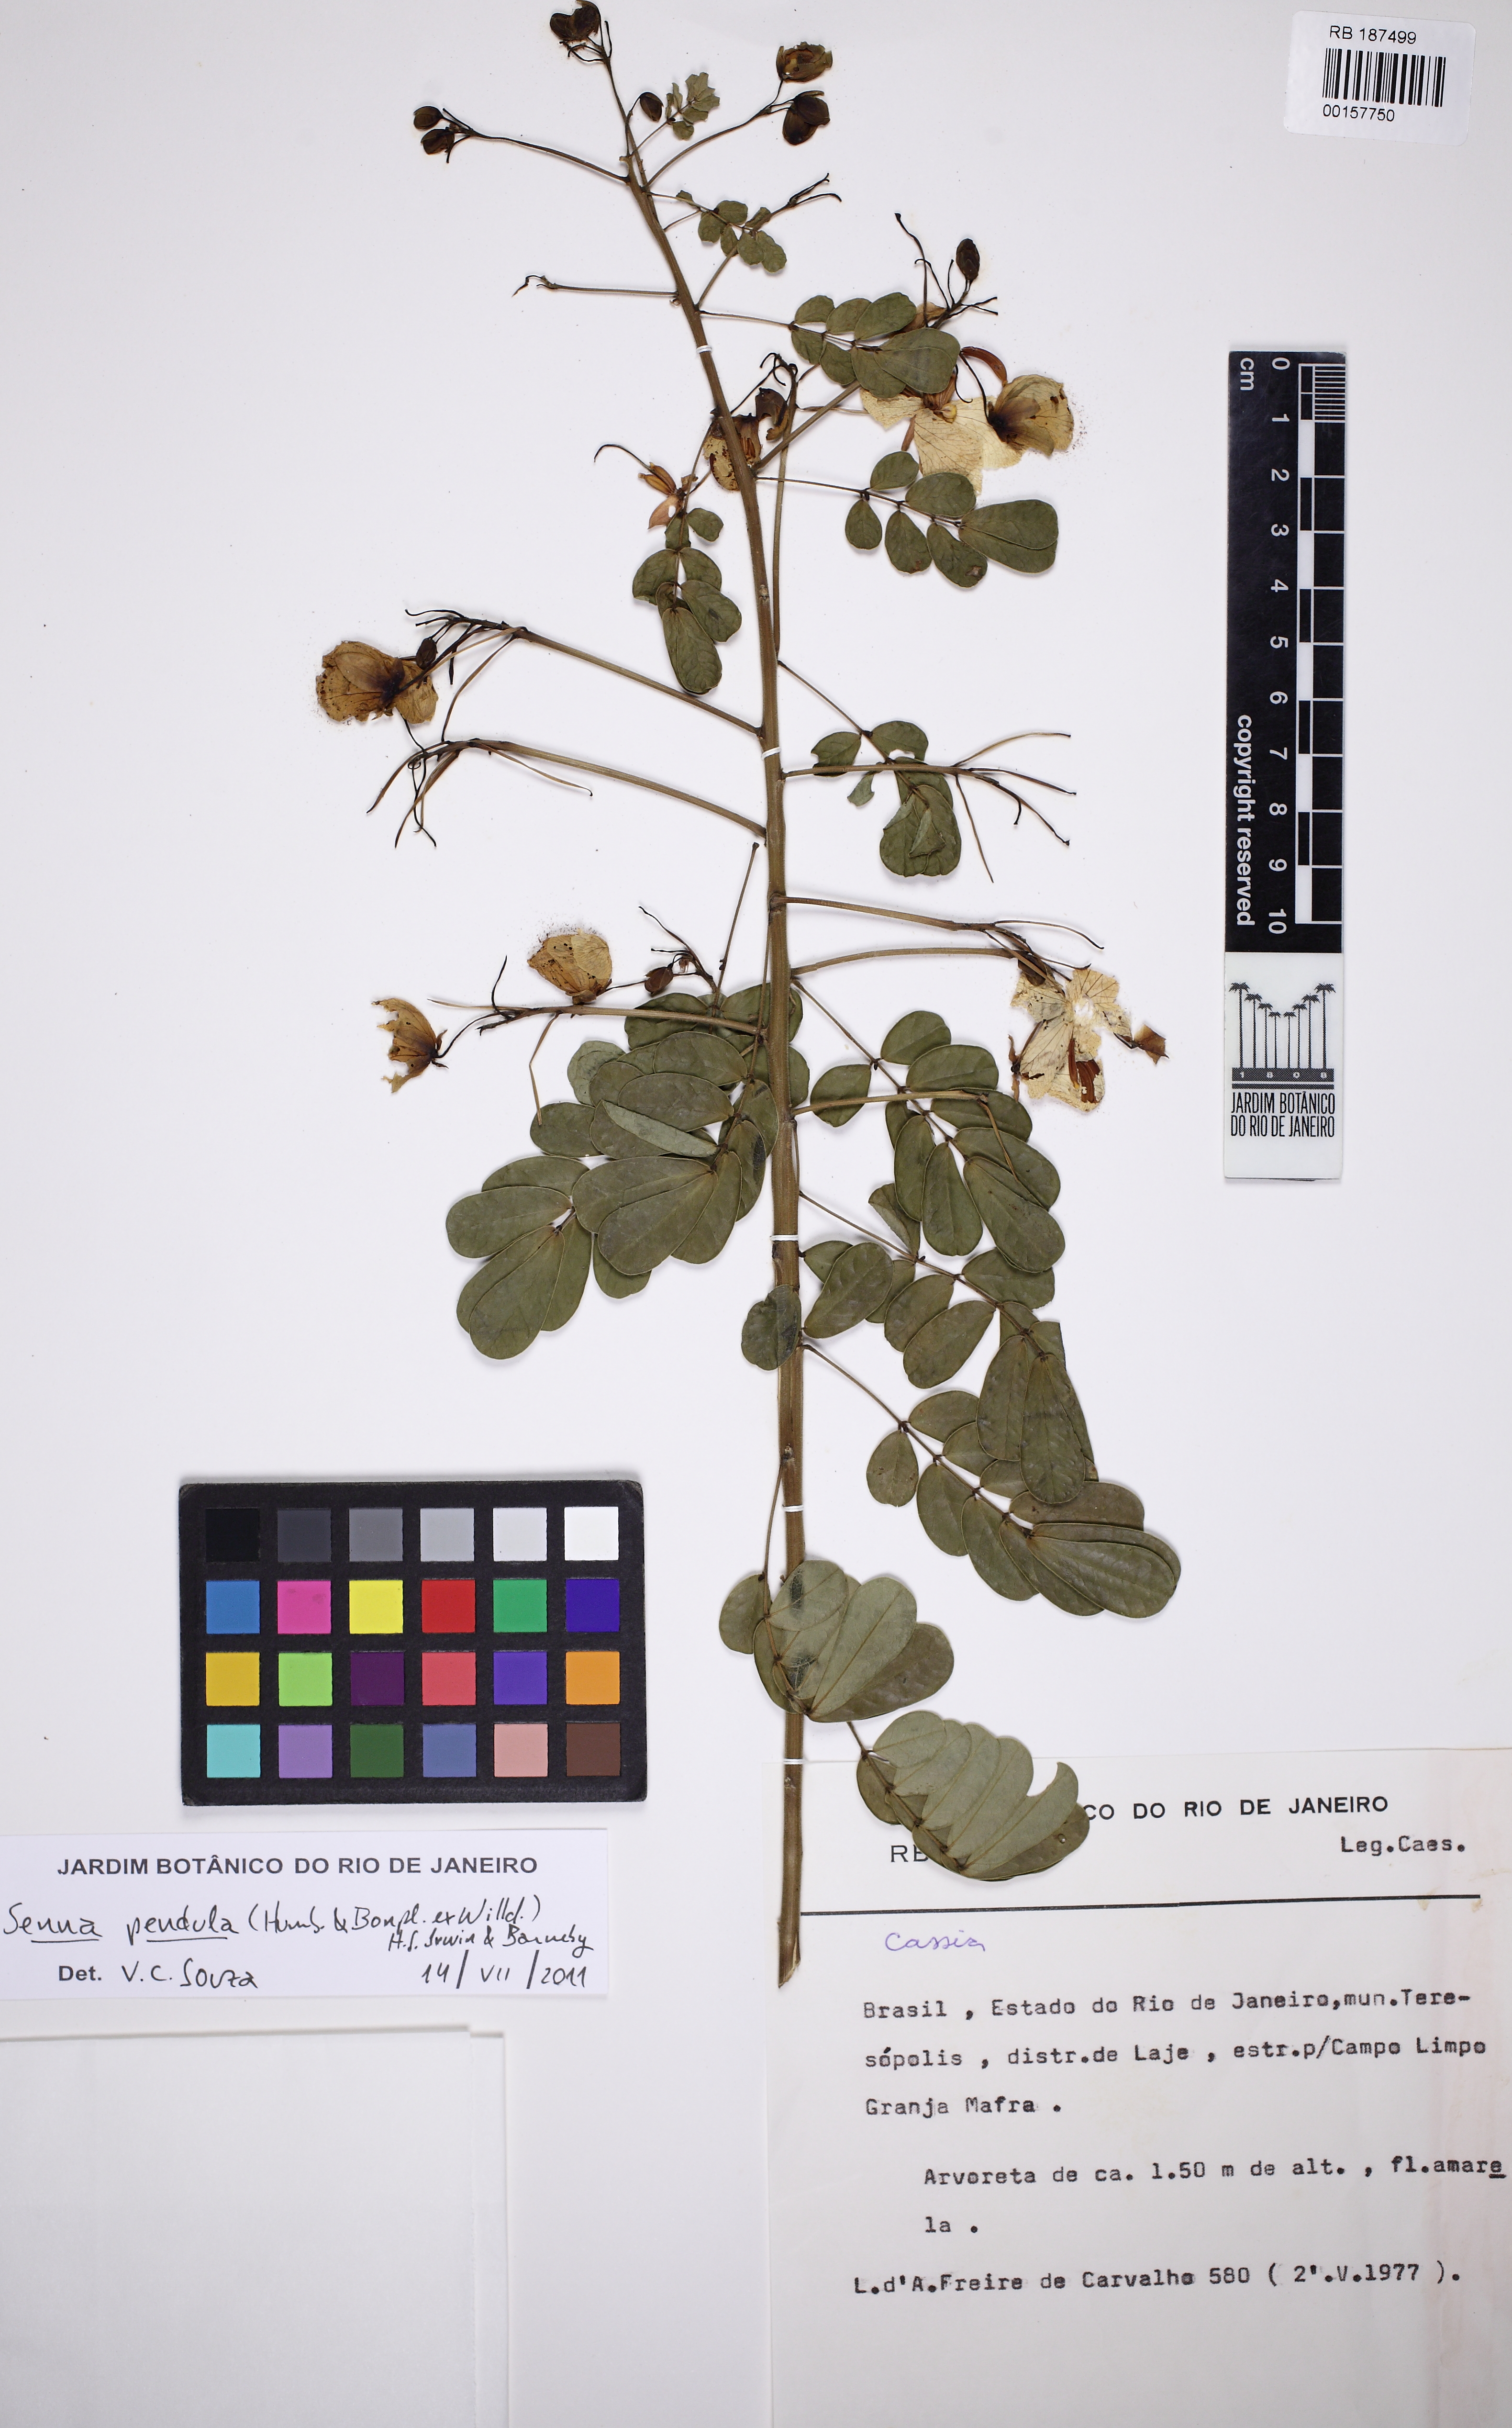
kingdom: Plantae
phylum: Tracheophyta
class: Magnoliopsida
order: Fabales
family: Fabaceae
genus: Senna
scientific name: Senna pendula
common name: Easter cassia
